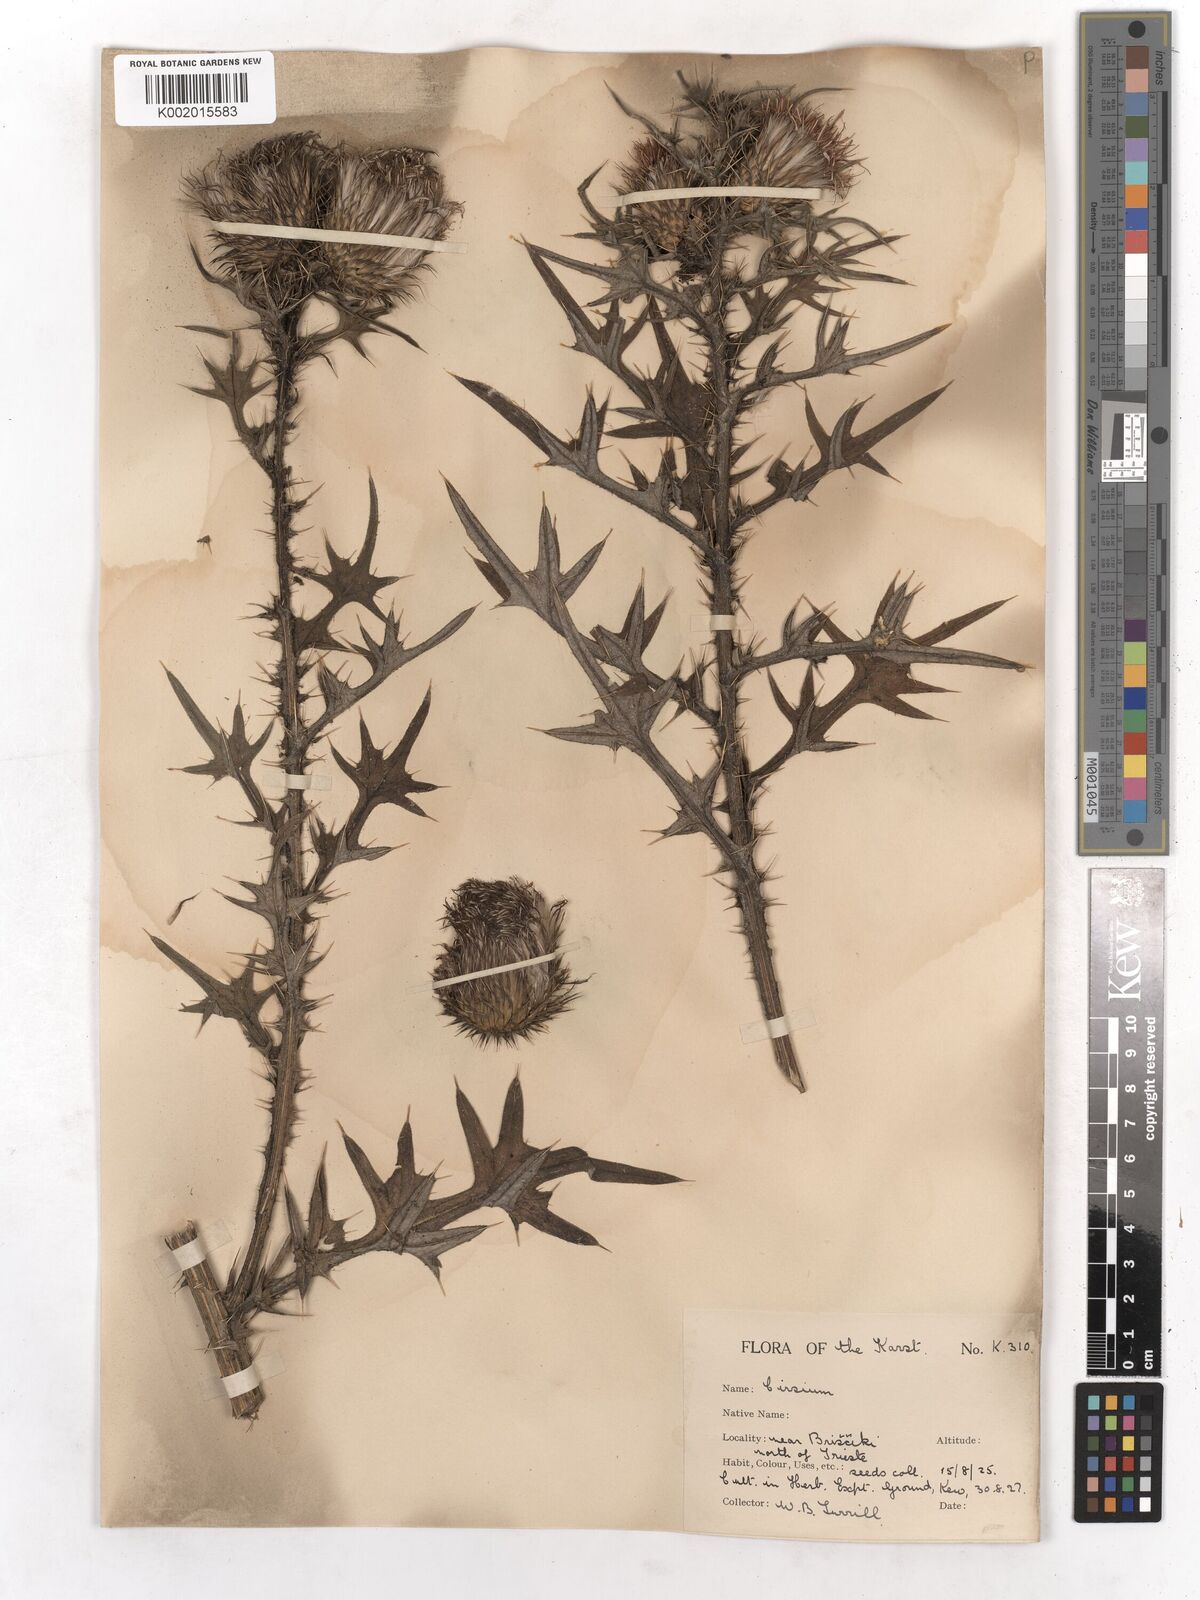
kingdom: Plantae
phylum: Tracheophyta
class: Magnoliopsida
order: Asterales
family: Asteraceae
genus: Cirsium
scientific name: Cirsium vulgare
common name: Bull thistle
